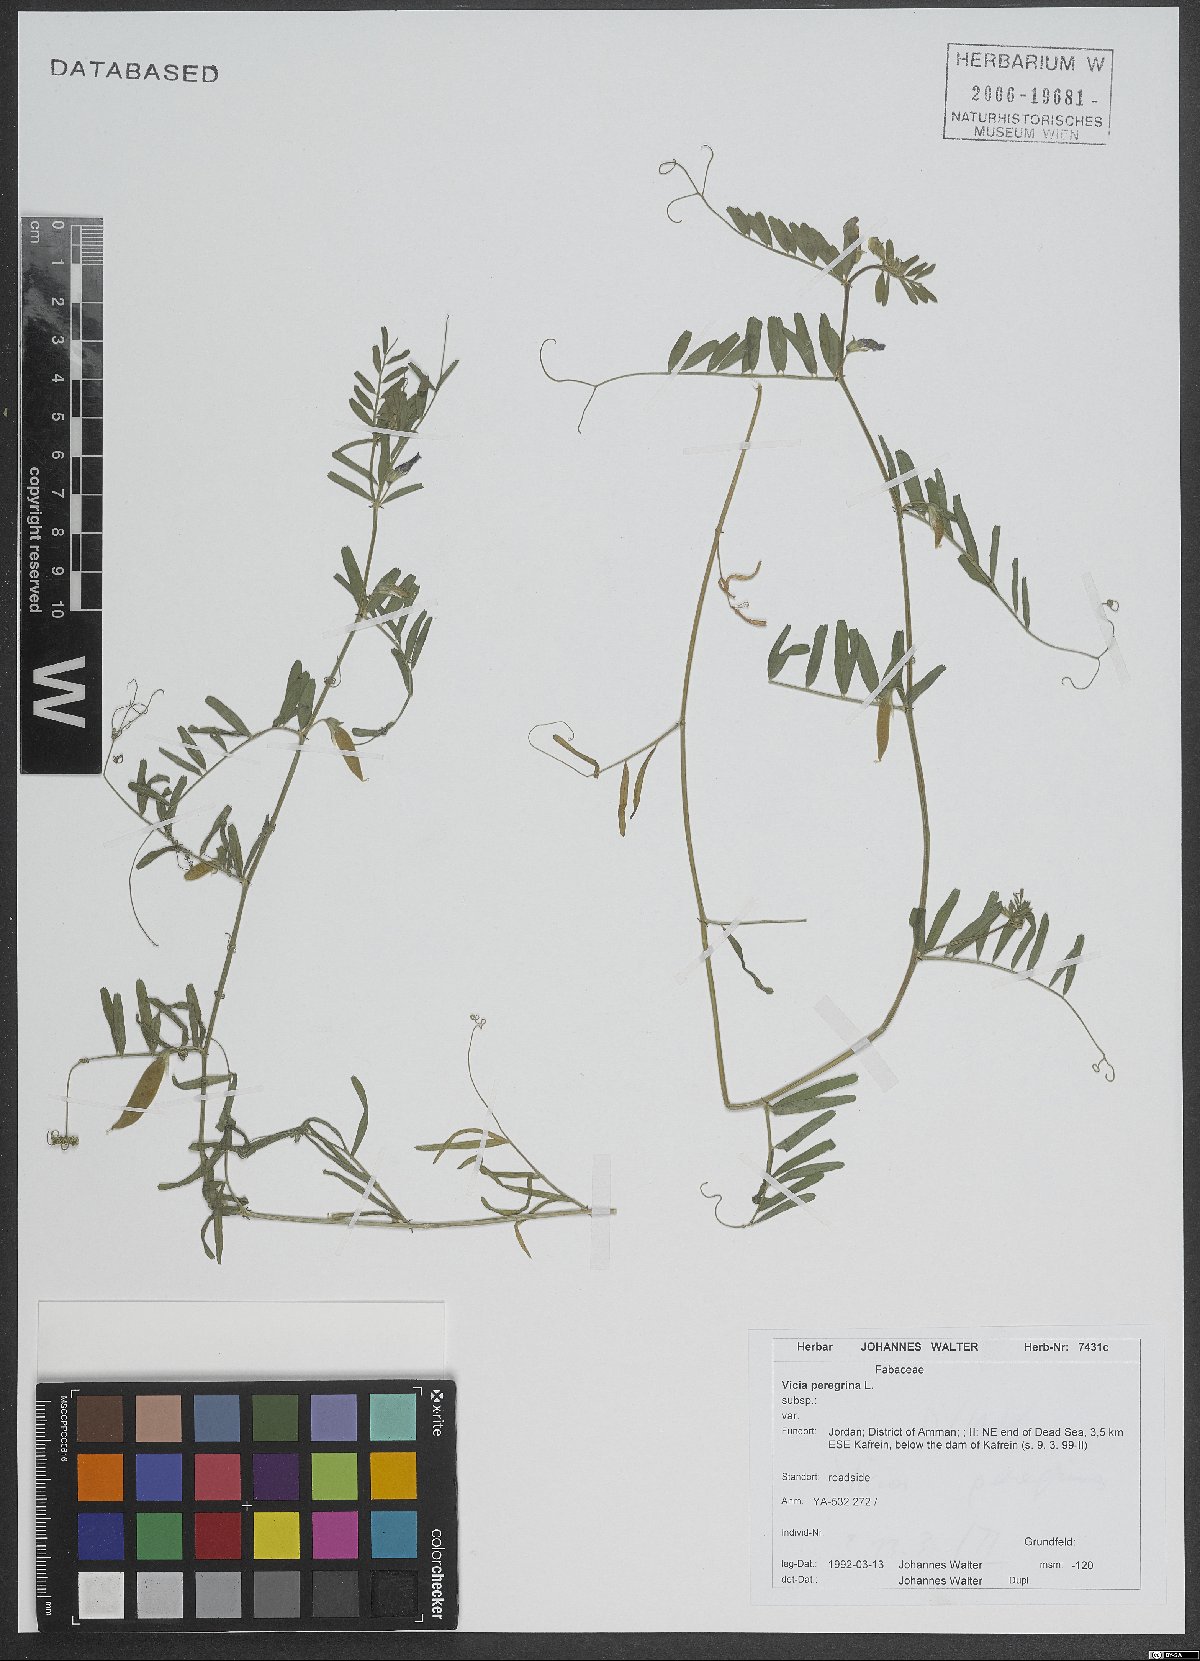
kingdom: Plantae
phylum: Tracheophyta
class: Magnoliopsida
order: Fabales
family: Fabaceae
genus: Vicia
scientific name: Vicia peregrina
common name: Broad-pod vetch
